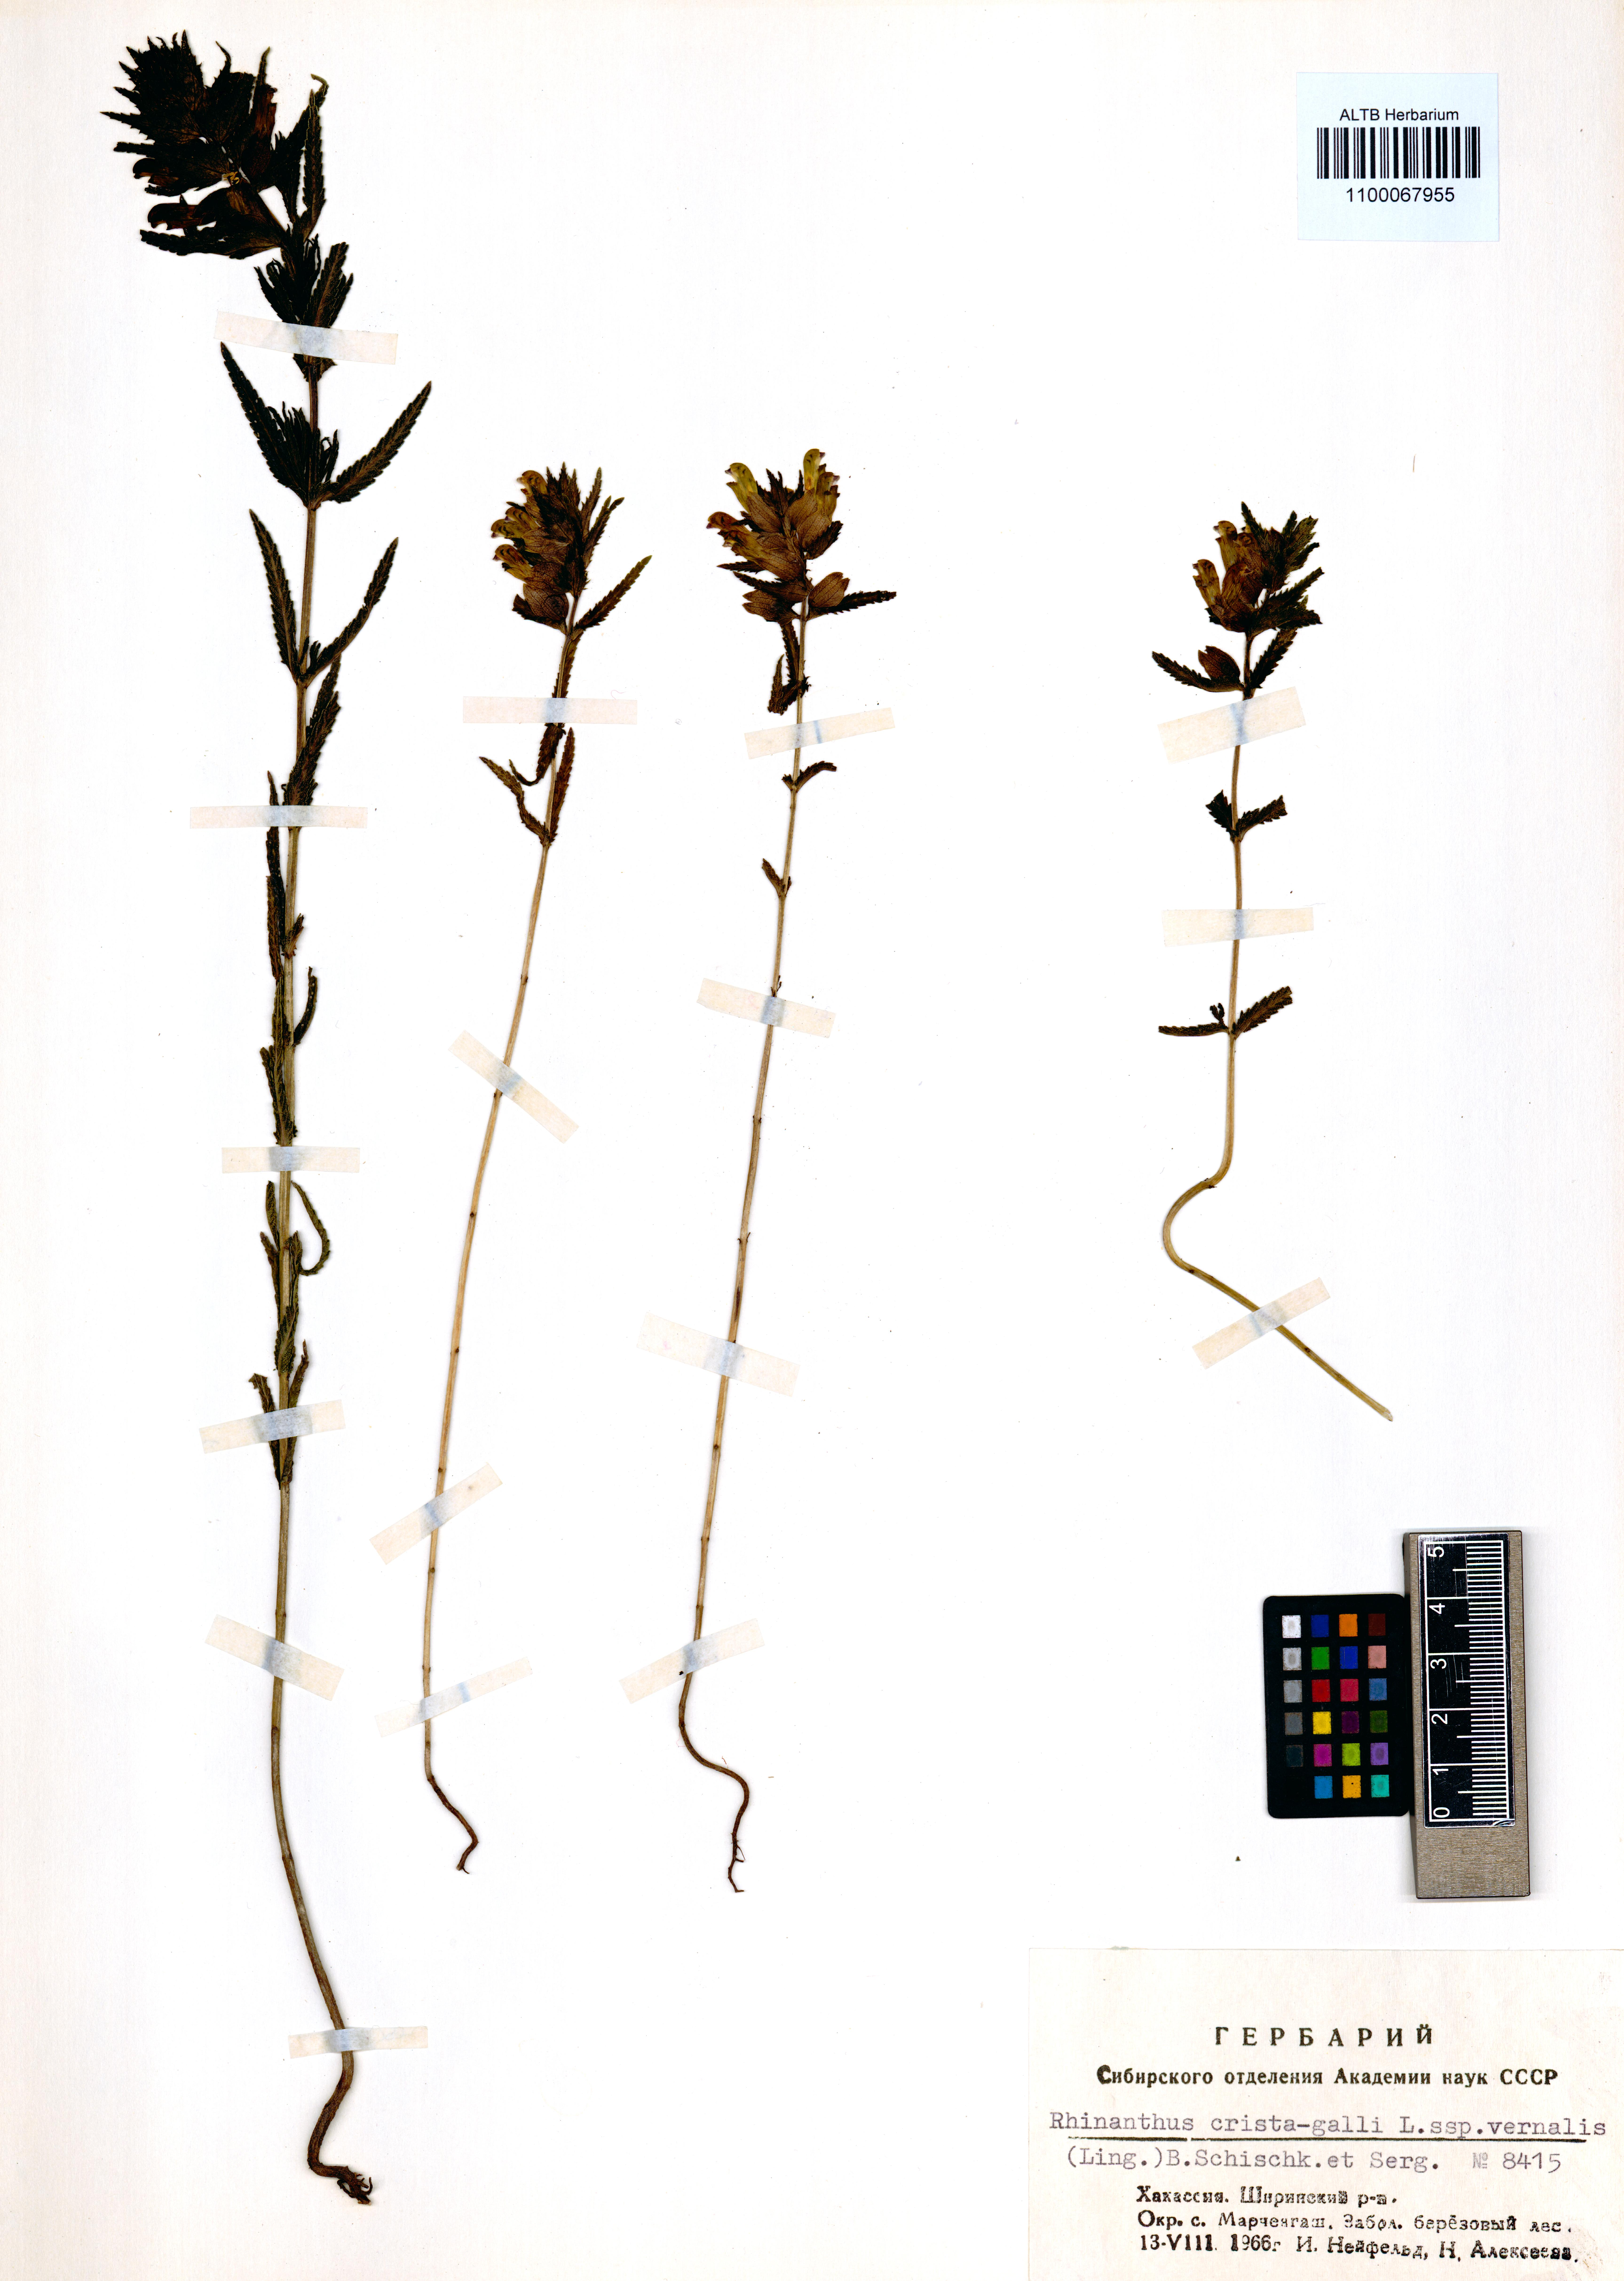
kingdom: Plantae
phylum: Tracheophyta
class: Magnoliopsida
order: Lamiales
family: Orobanchaceae
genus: Rhinanthus
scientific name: Rhinanthus minor
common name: Yellow-rattle
